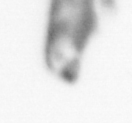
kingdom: Animalia
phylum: Annelida
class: Polychaeta
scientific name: Polychaeta
